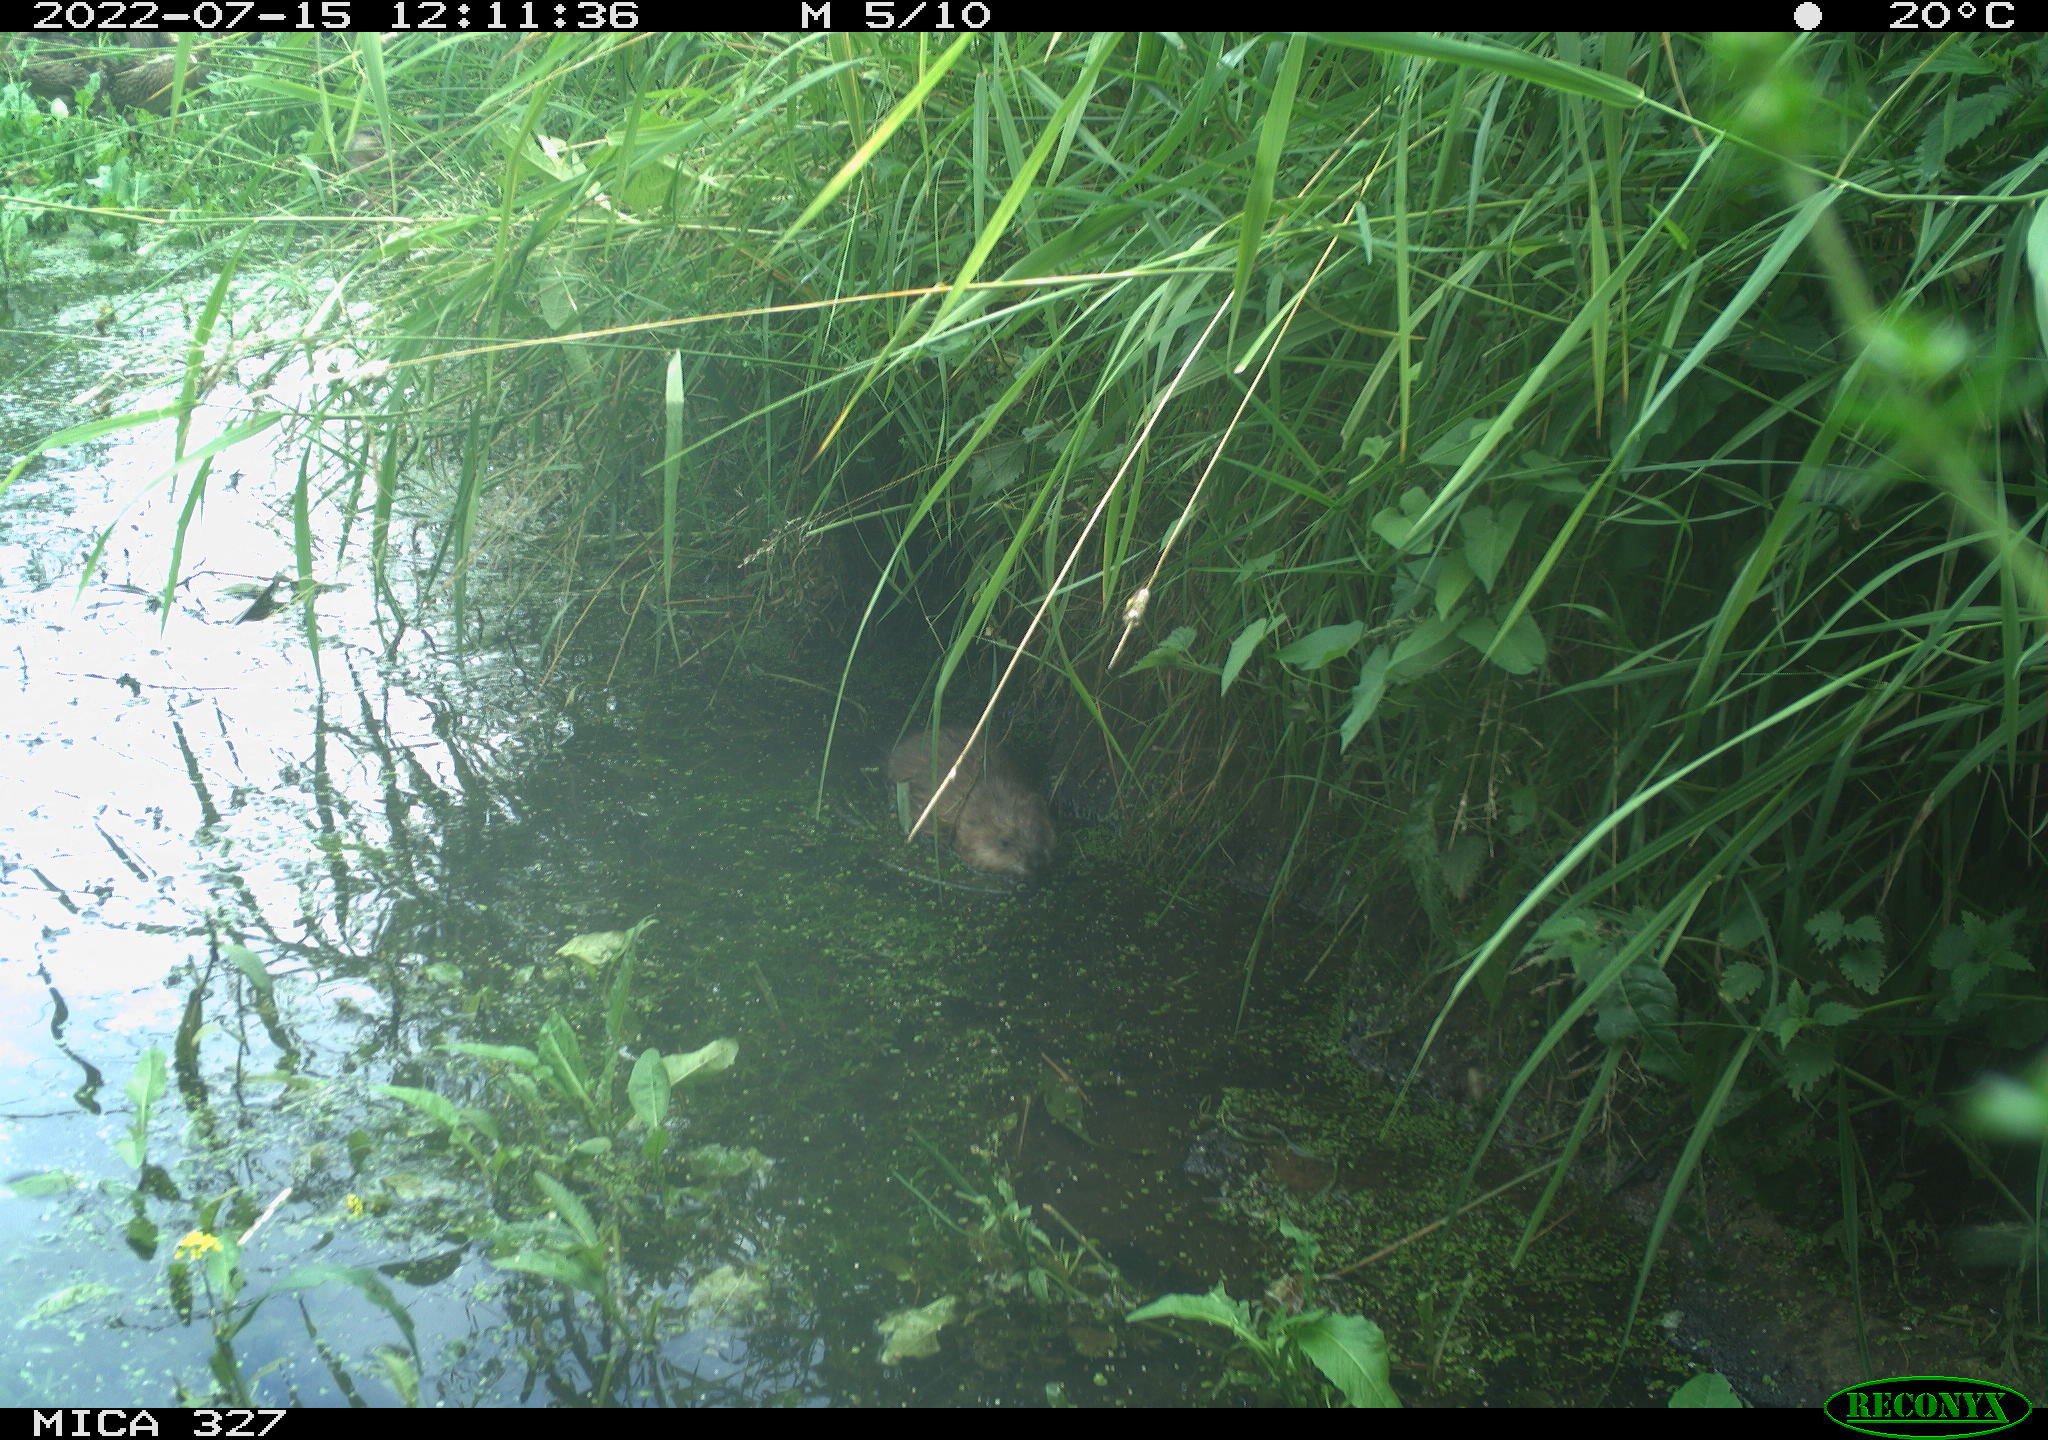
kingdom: Animalia
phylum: Chordata
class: Mammalia
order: Rodentia
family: Cricetidae
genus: Ondatra
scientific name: Ondatra zibethicus
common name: Muskrat
